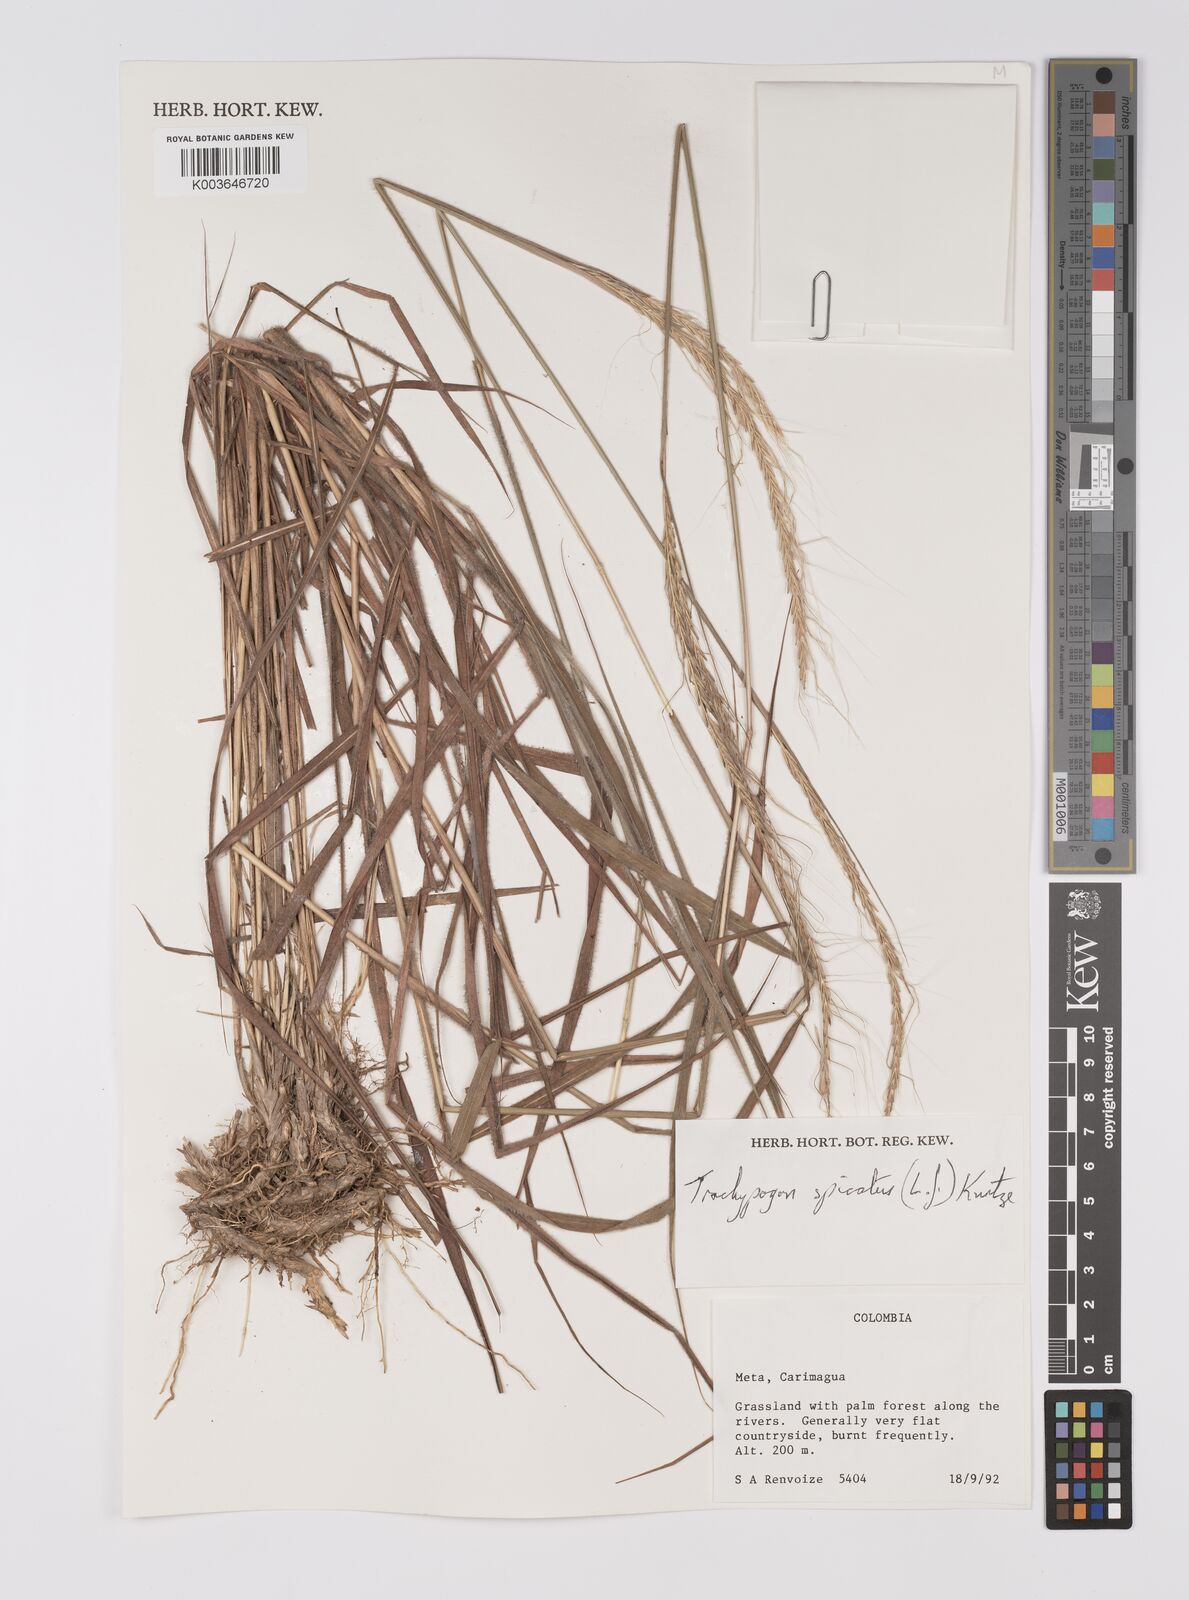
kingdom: Plantae
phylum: Tracheophyta
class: Liliopsida
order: Poales
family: Poaceae
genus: Trachypogon
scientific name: Trachypogon spicatus
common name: Crinkle-awn
